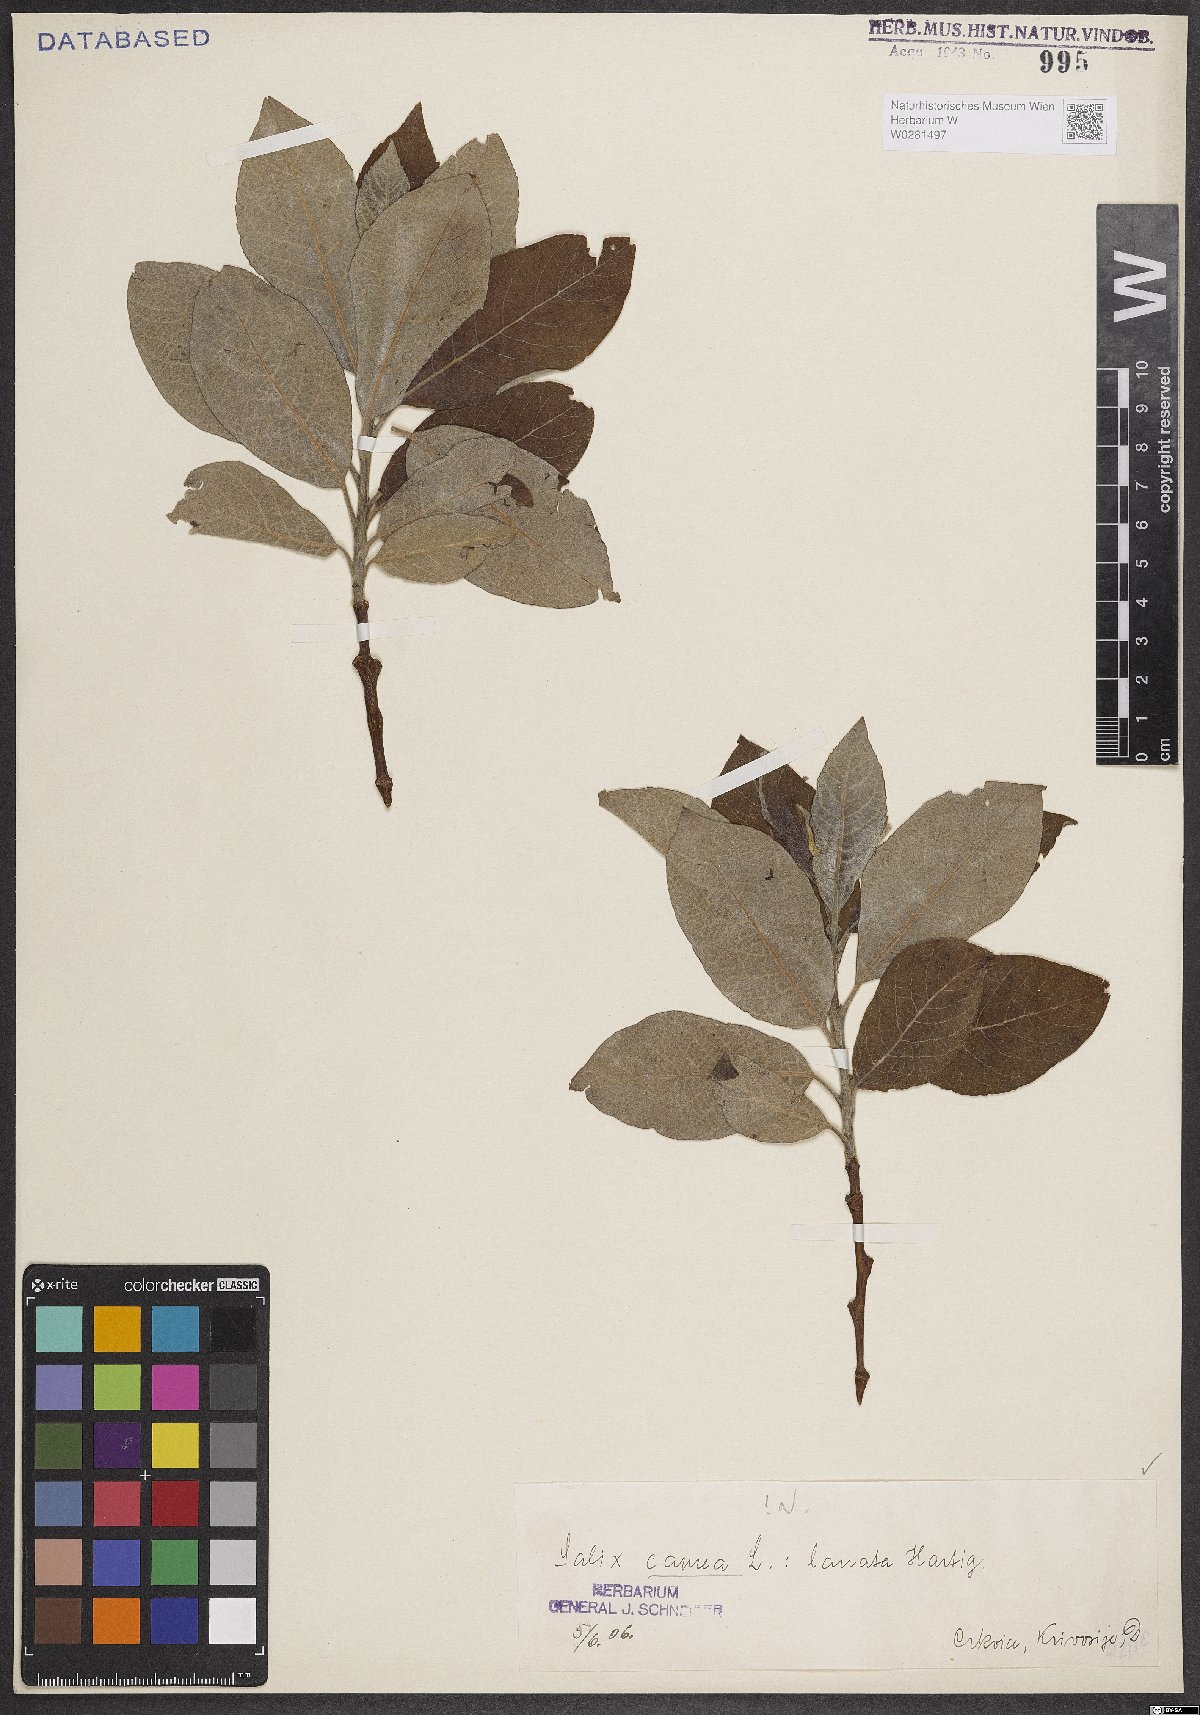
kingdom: Plantae
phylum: Tracheophyta
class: Magnoliopsida
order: Malpighiales
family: Salicaceae
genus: Salix
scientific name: Salix caprea
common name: Goat willow
